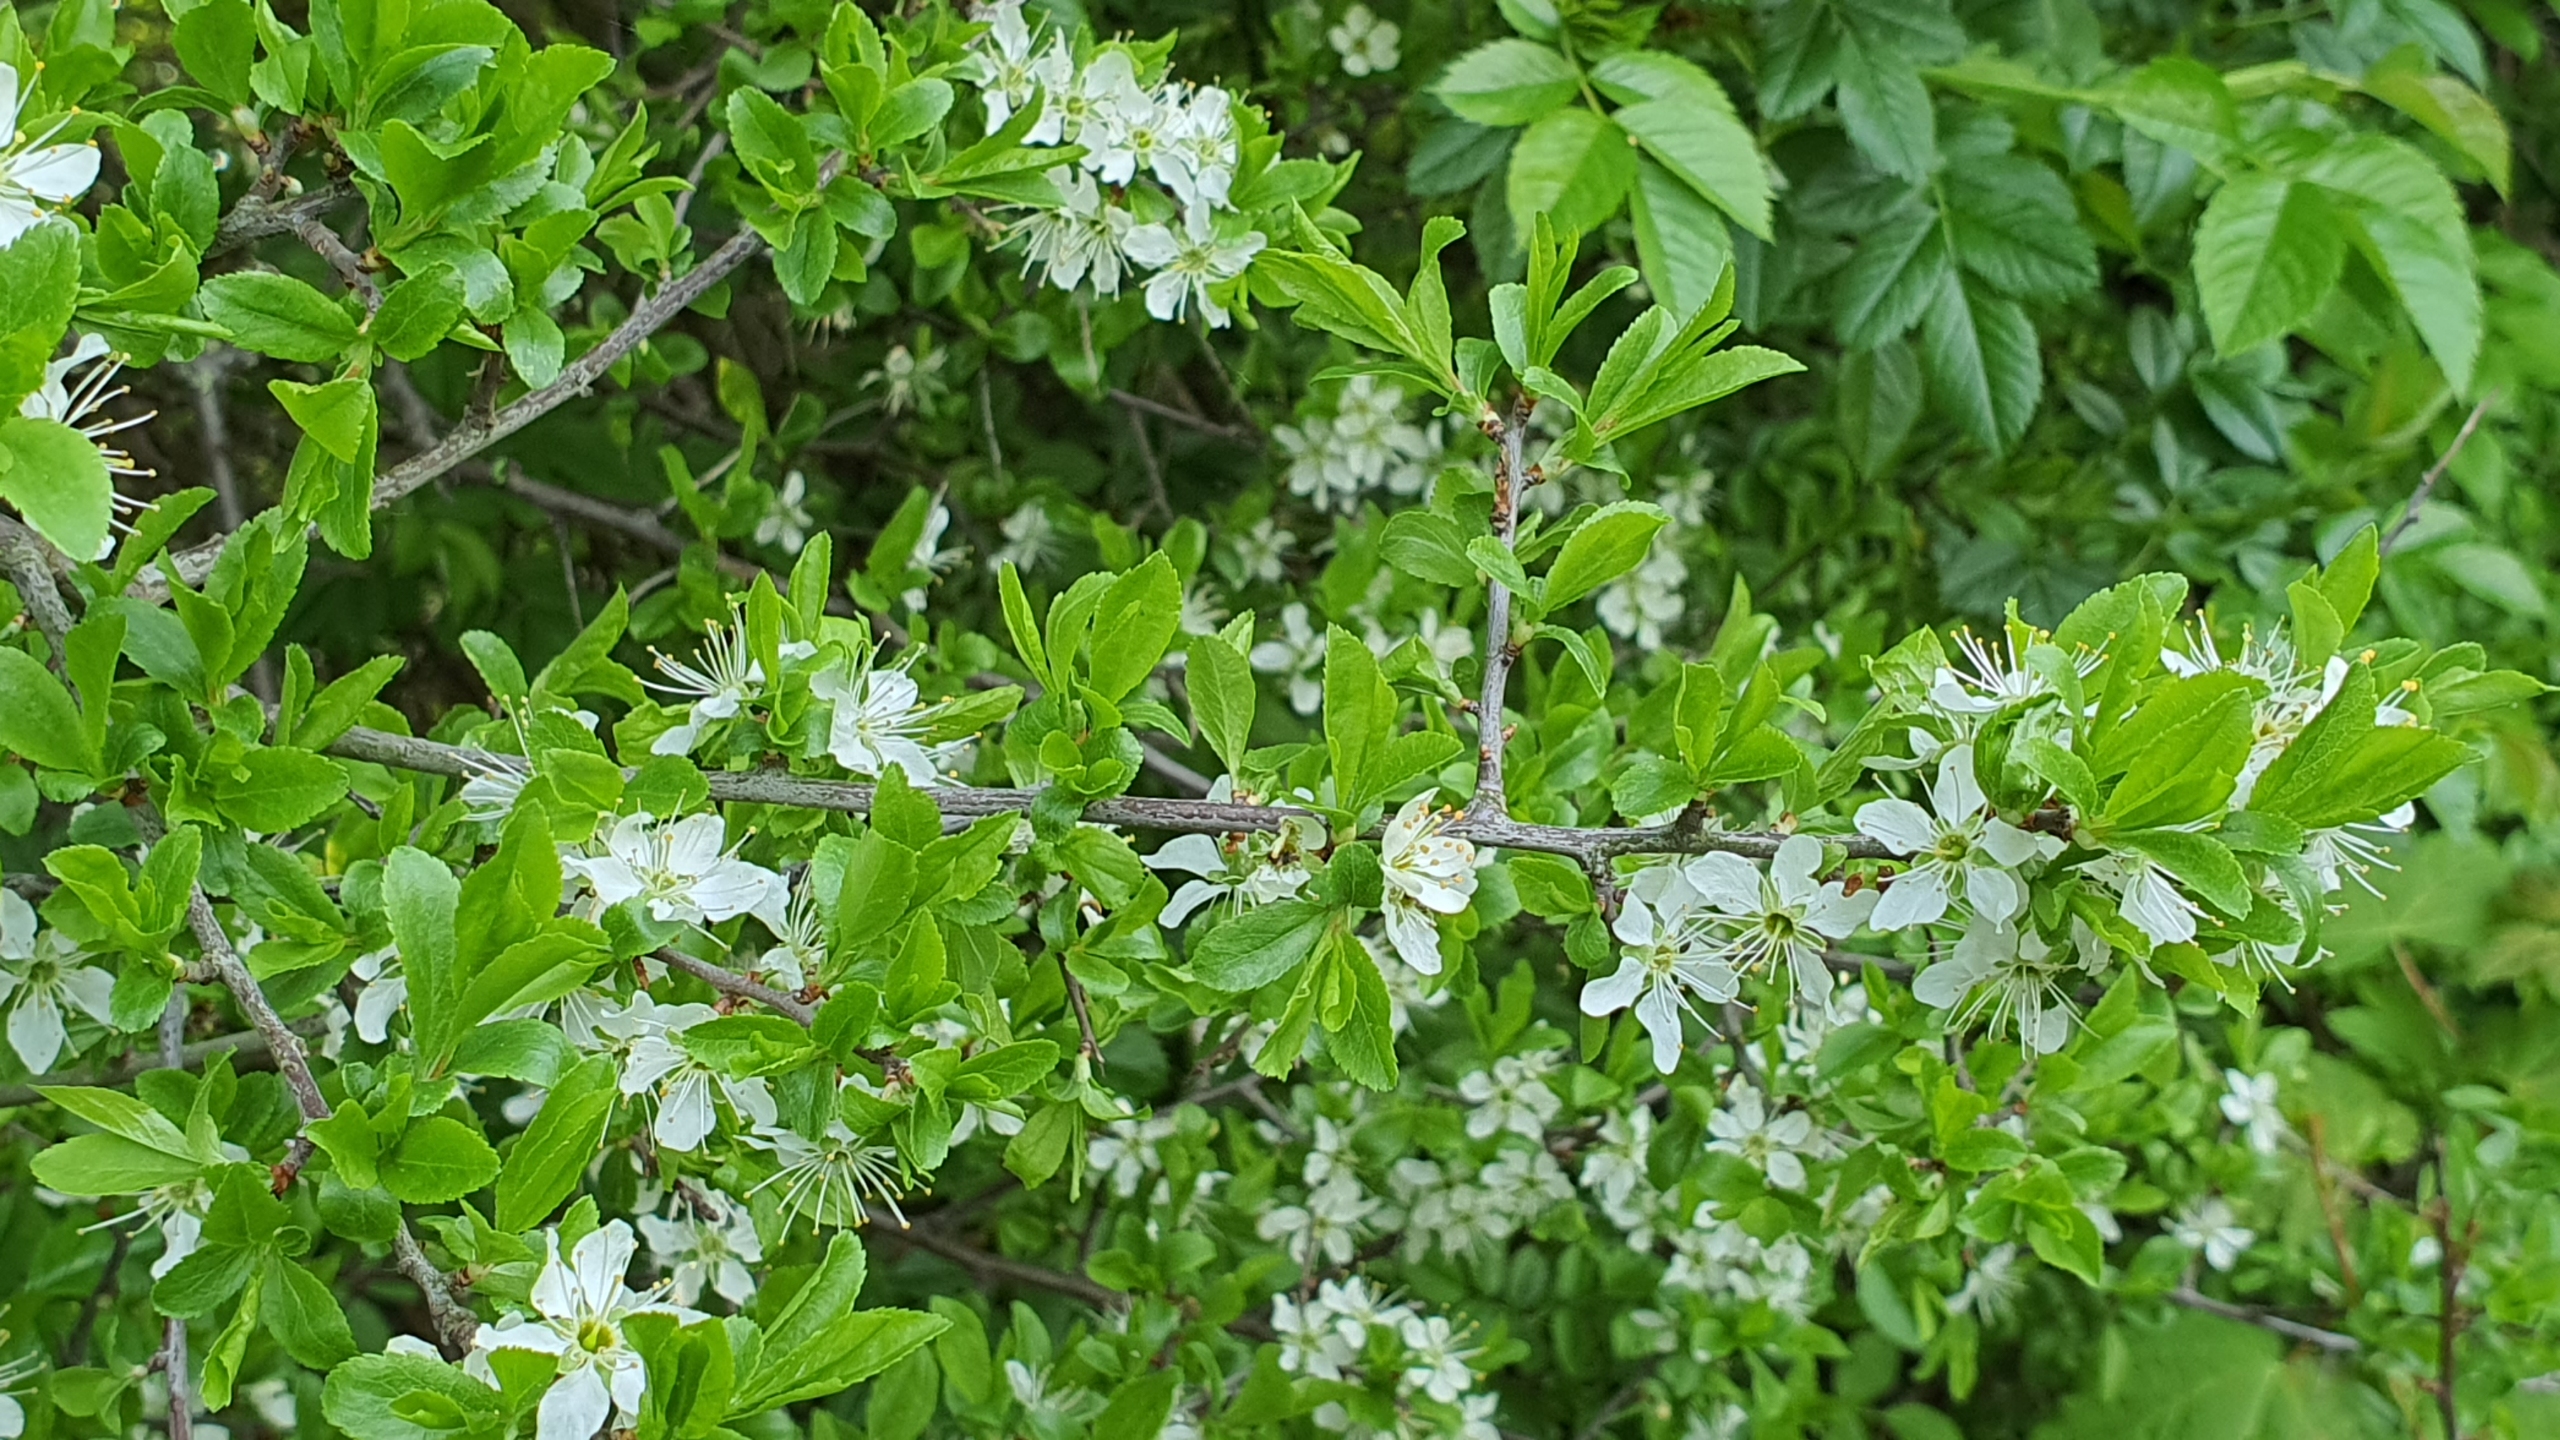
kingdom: Plantae
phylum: Tracheophyta
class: Magnoliopsida
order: Rosales
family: Rosaceae
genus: Prunus
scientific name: Prunus spinosa
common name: Slåen
